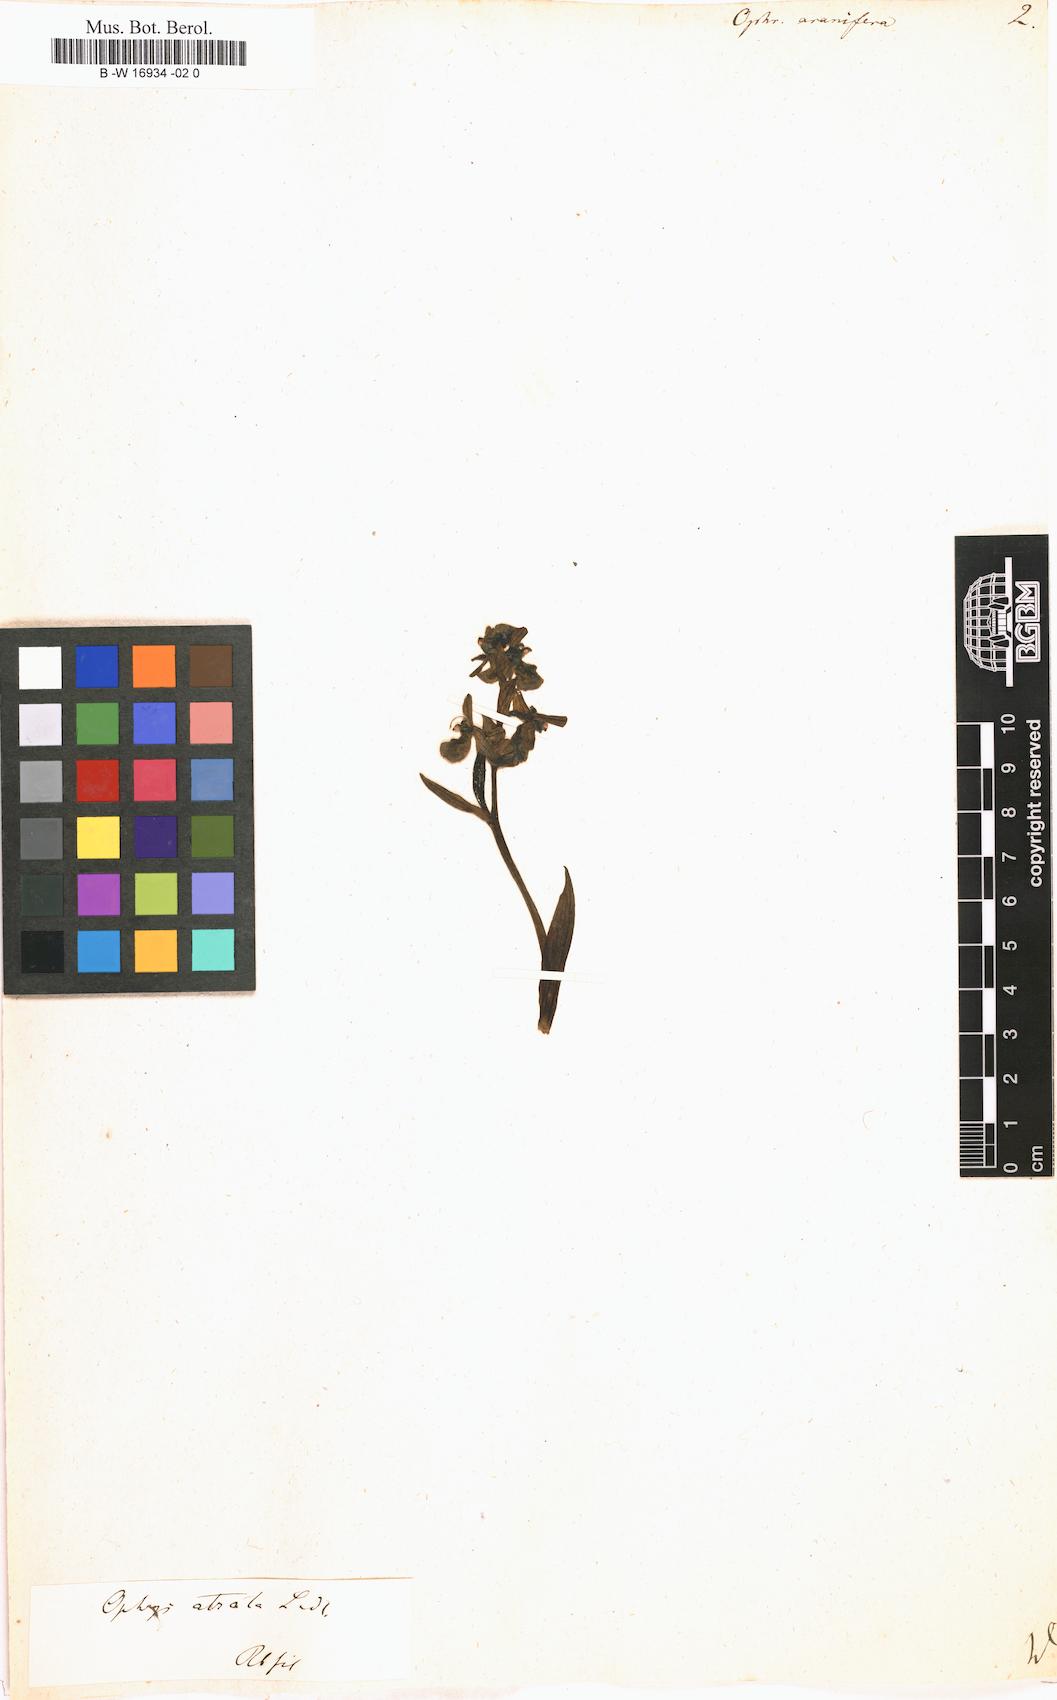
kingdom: Plantae
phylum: Tracheophyta
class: Liliopsida
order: Asparagales
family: Orchidaceae
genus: Ophrys
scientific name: Ophrys sphegodes
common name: Early spider-orchid
